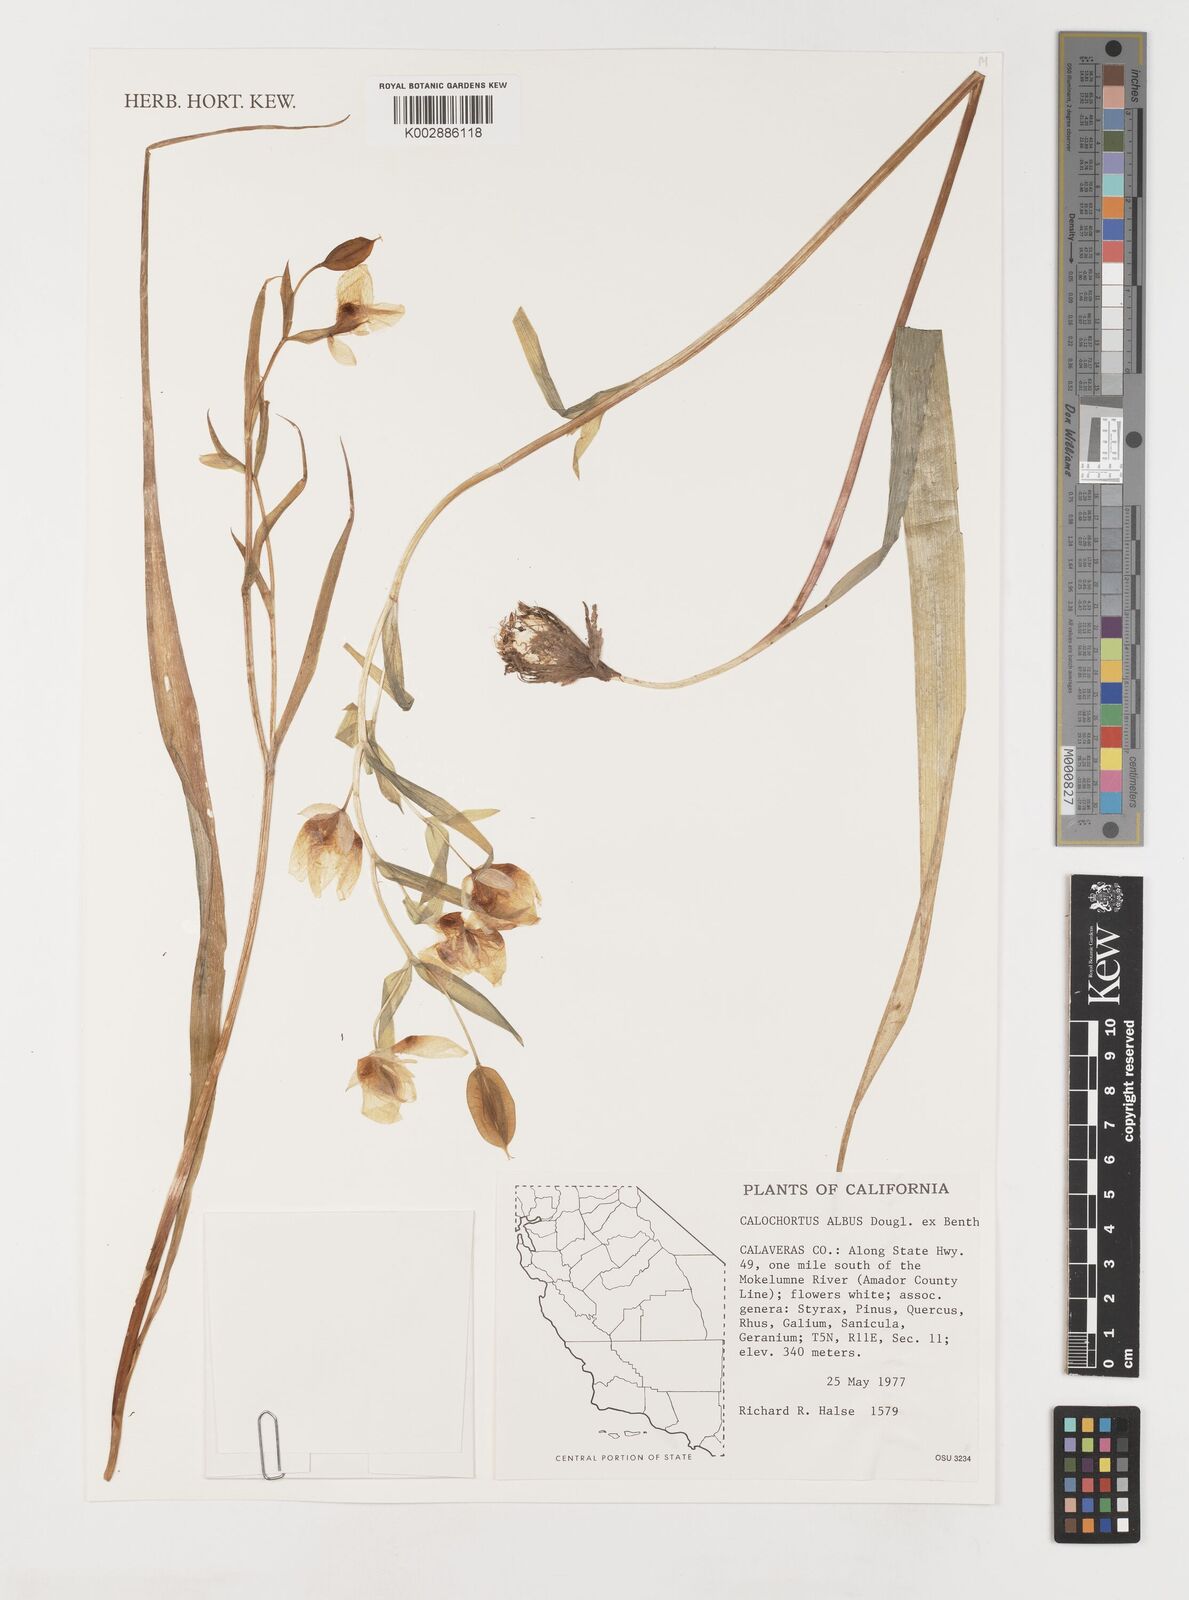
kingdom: Plantae
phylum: Tracheophyta
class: Liliopsida
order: Liliales
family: Liliaceae
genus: Calochortus
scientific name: Calochortus albus
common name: Fairy-lantern
